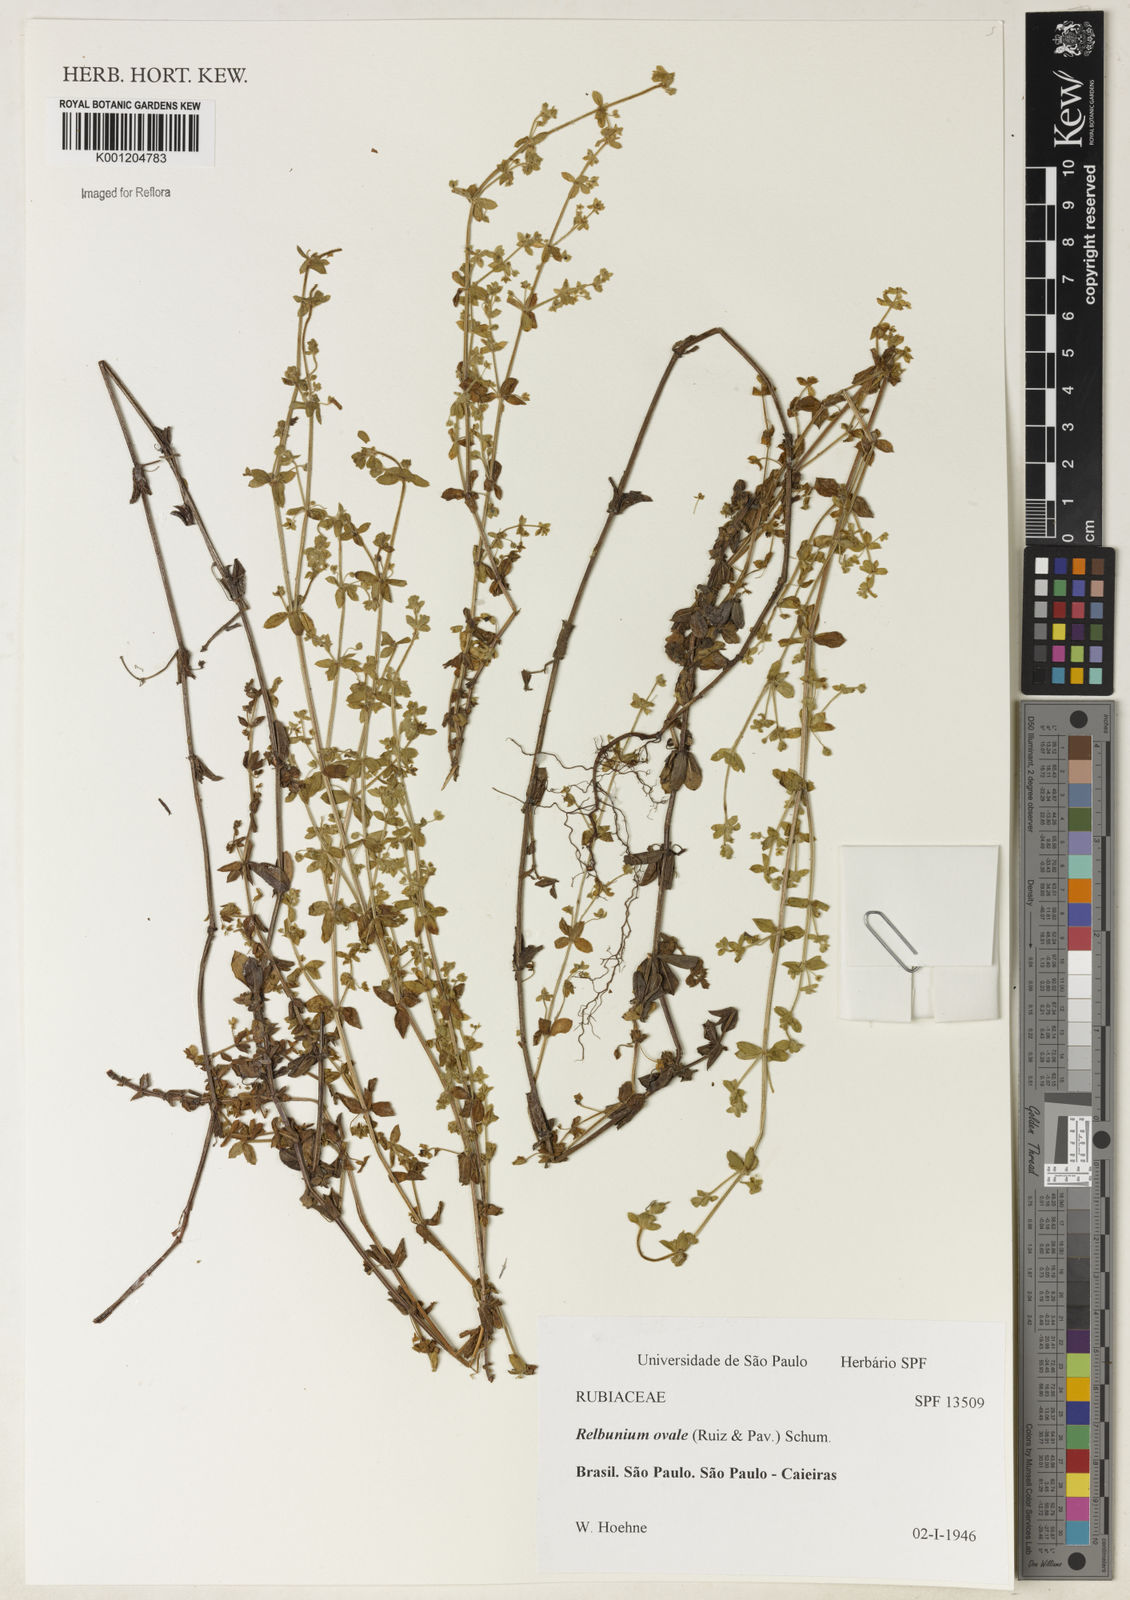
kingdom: Plantae
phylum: Tracheophyta
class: Magnoliopsida
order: Gentianales
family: Rubiaceae
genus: Galium
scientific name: Galium hypocarpium
